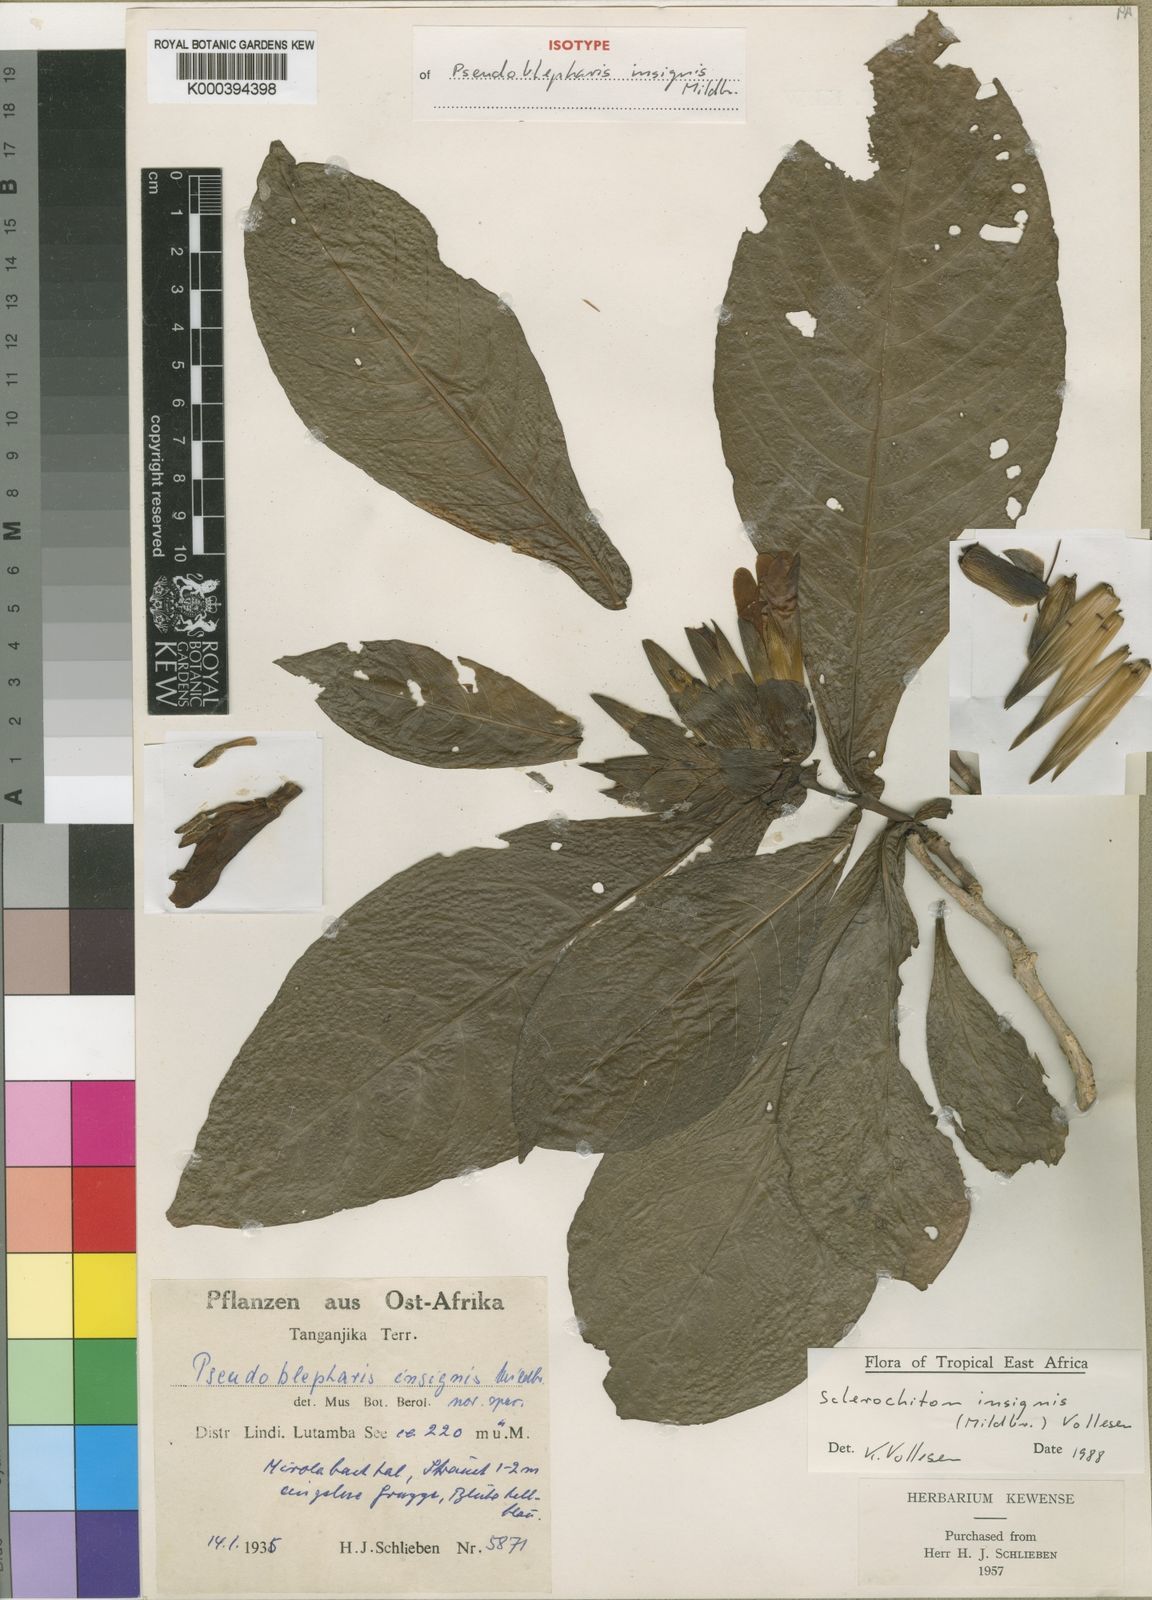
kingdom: Plantae
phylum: Tracheophyta
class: Magnoliopsida
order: Lamiales
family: Acanthaceae
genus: Sclerochiton
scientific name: Sclerochiton insignis
